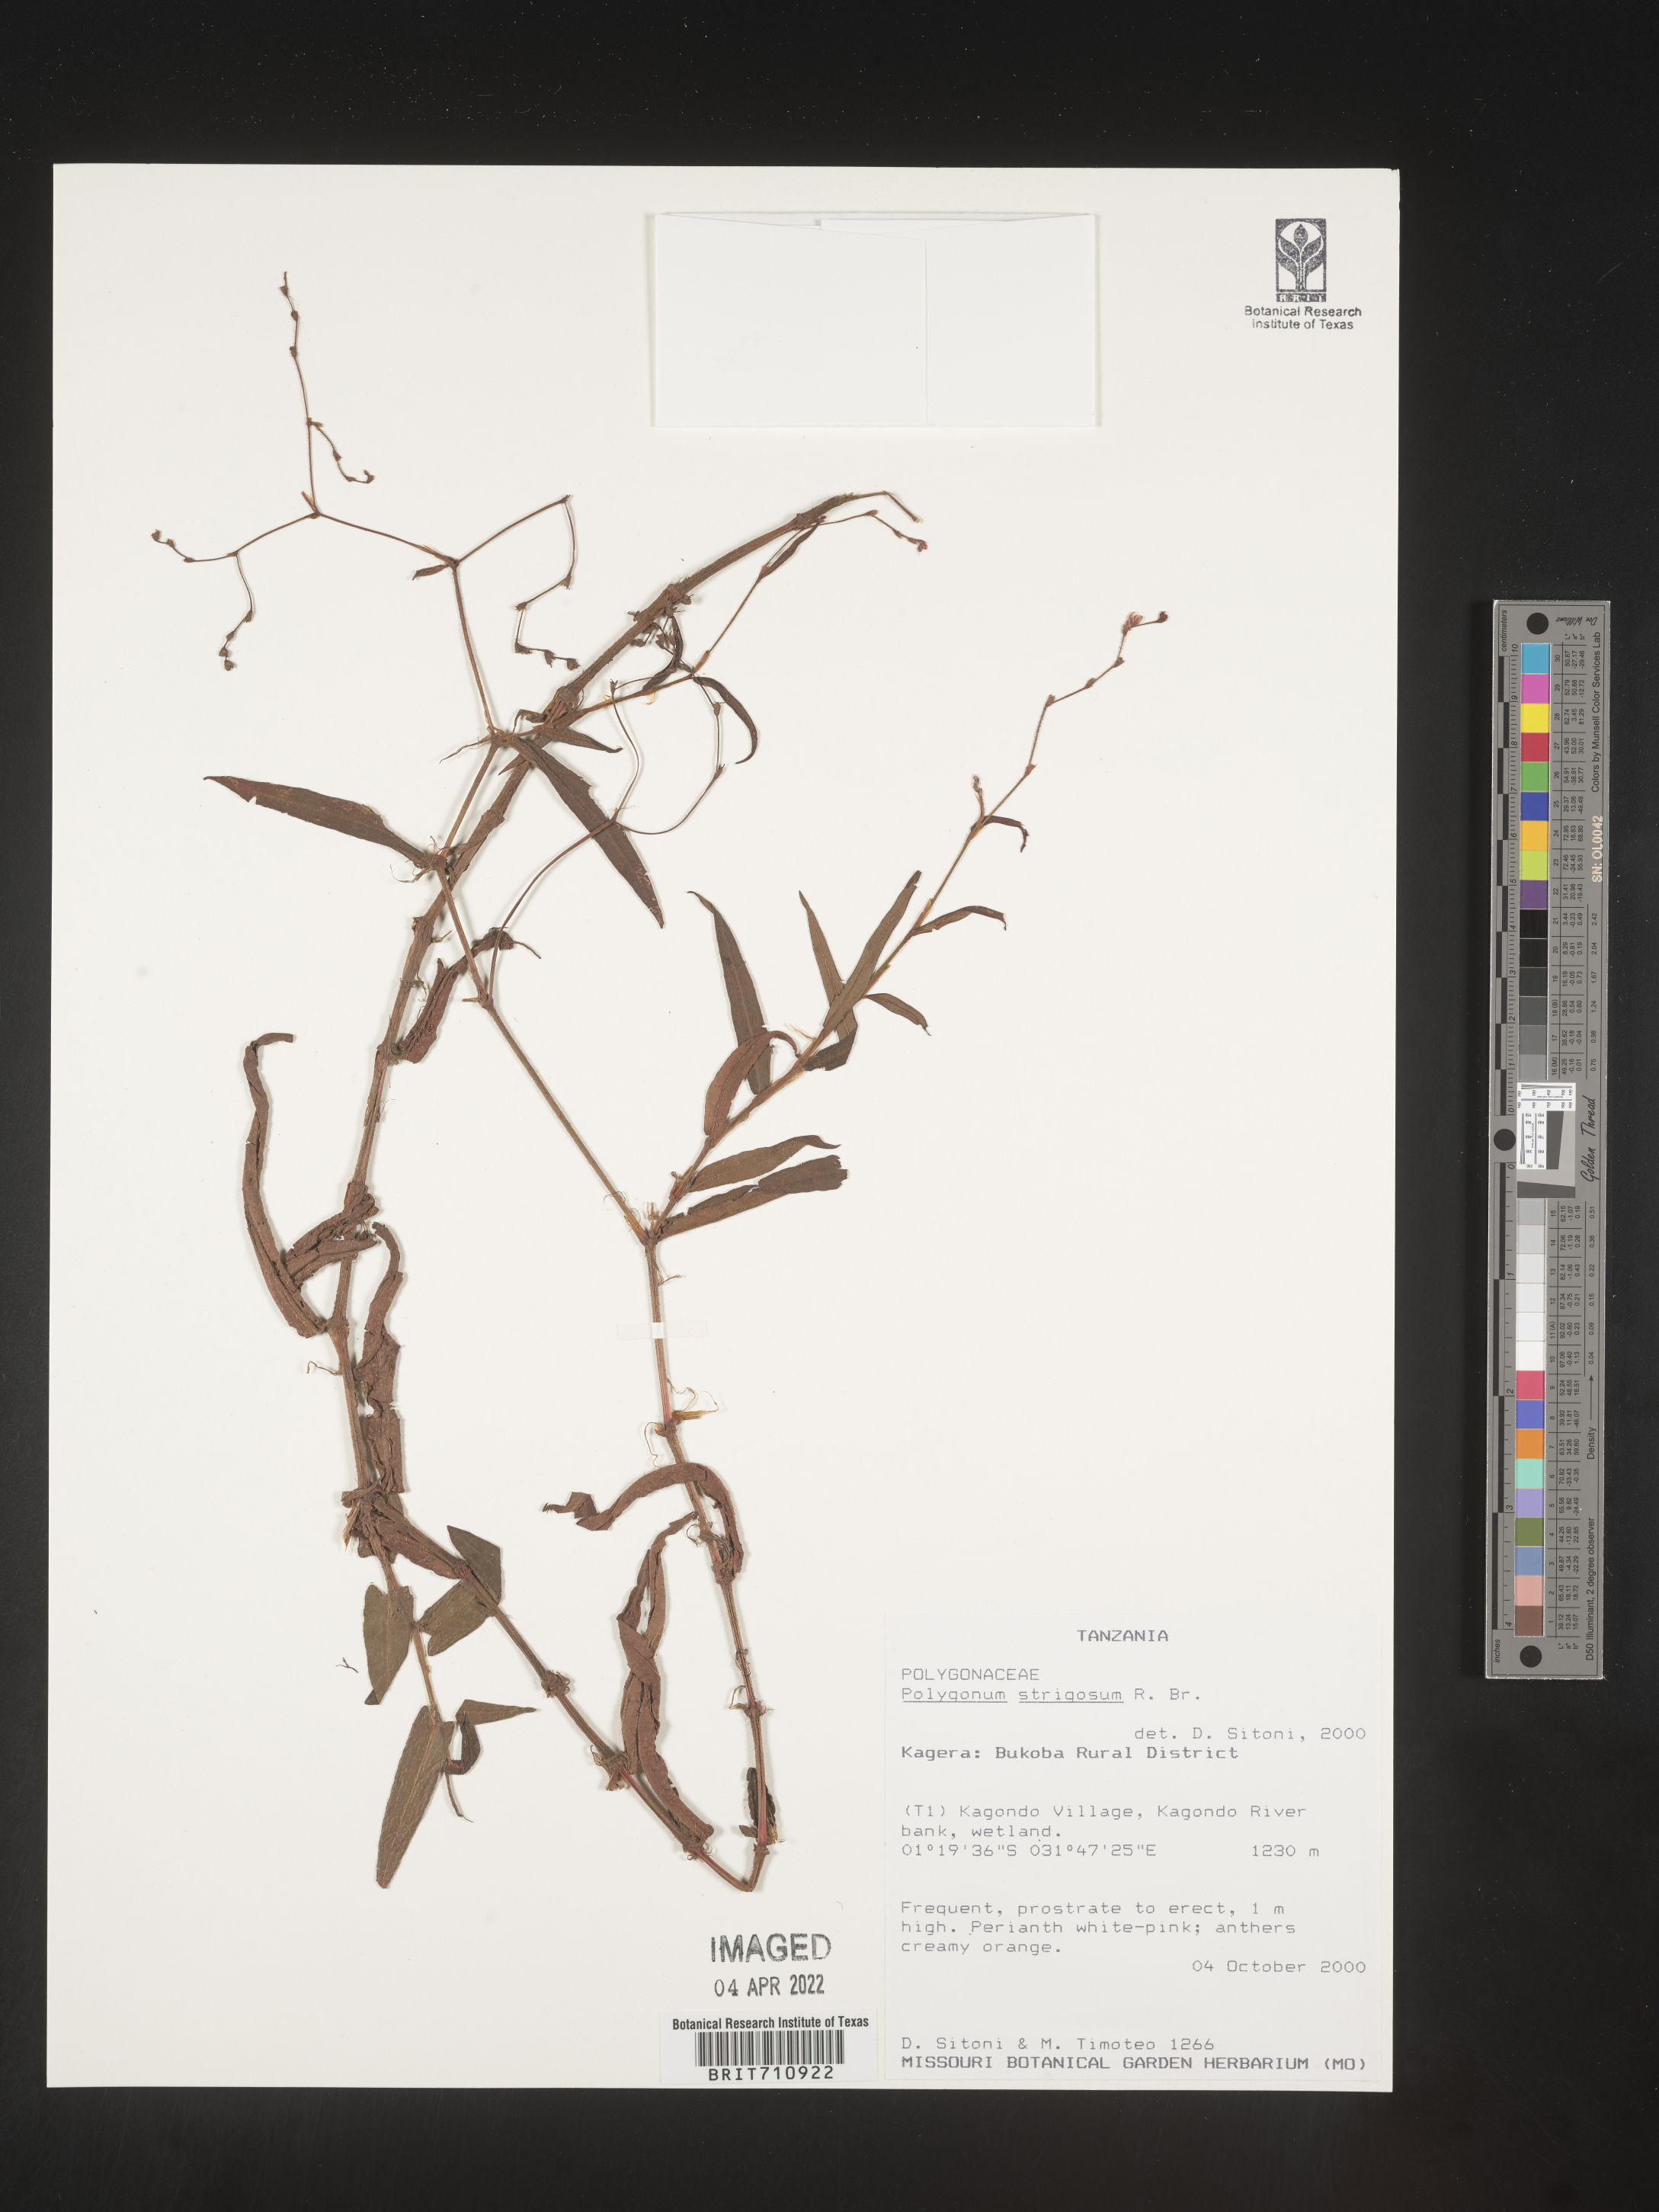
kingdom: Plantae
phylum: Tracheophyta
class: Magnoliopsida
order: Caryophyllales
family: Polygonaceae
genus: Polygonum
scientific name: Polygonum
